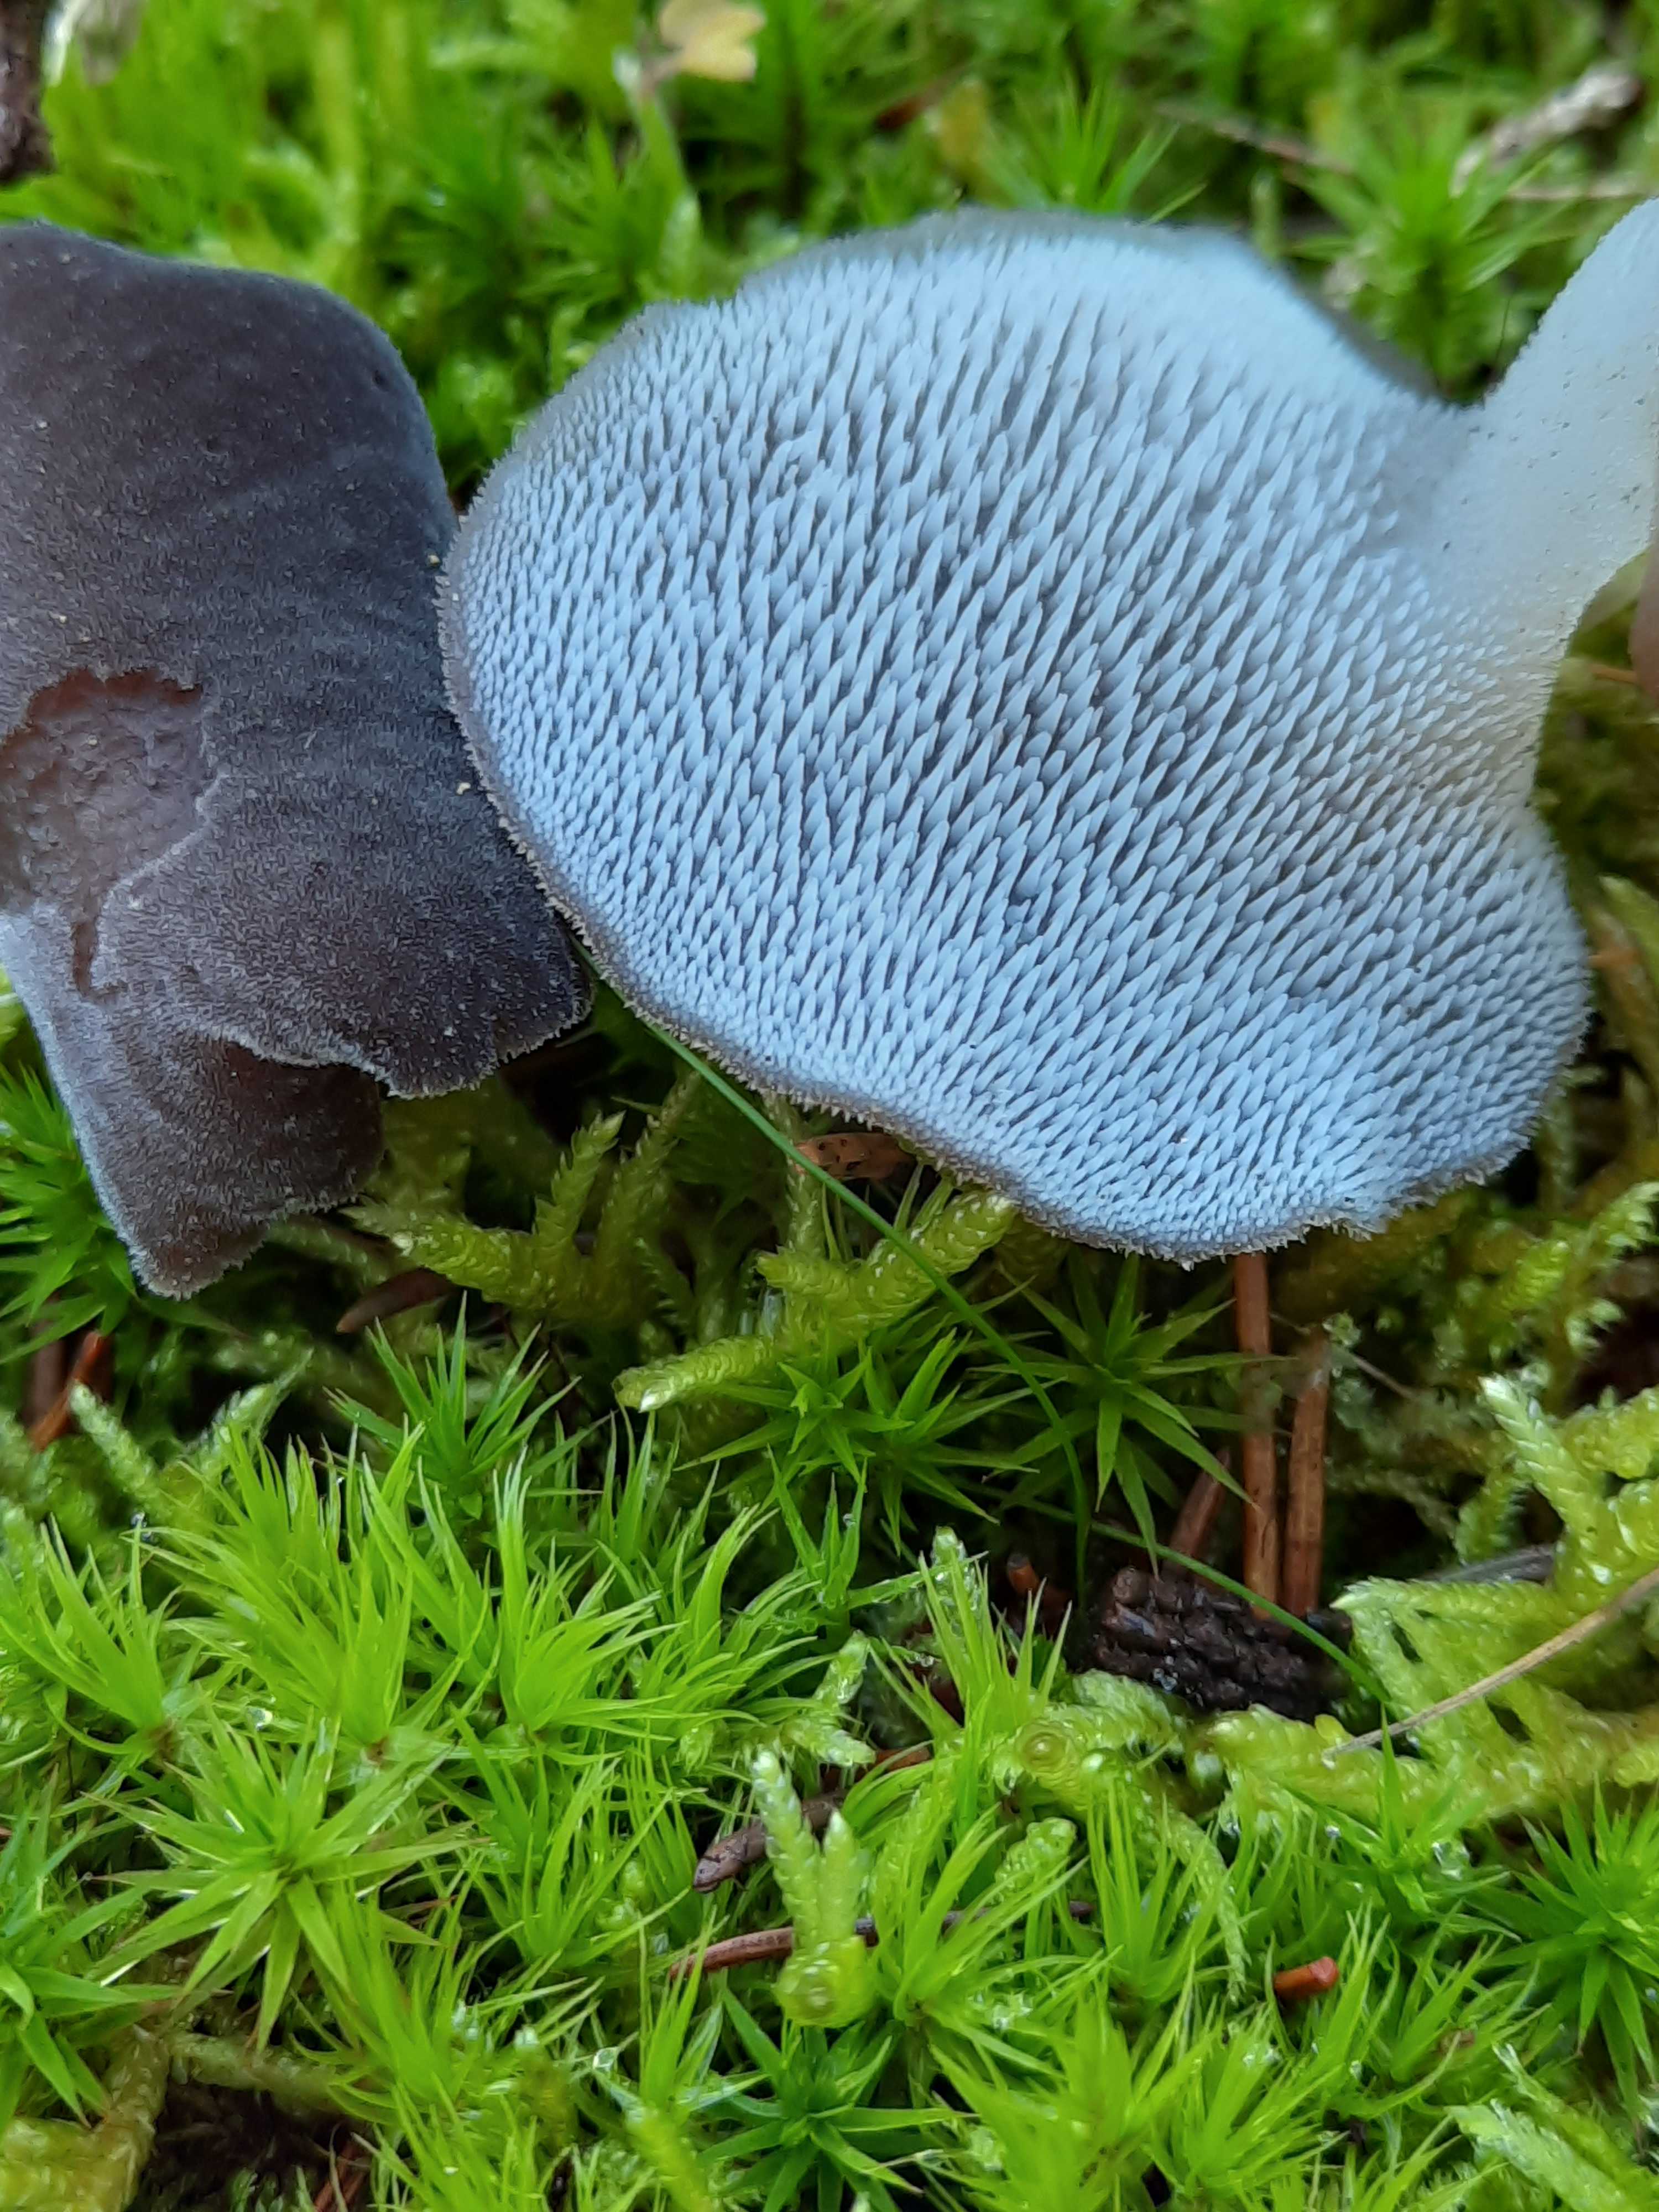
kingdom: Fungi
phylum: Basidiomycota
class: Agaricomycetes
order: Auriculariales
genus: Pseudohydnum
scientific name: Pseudohydnum gelatinosum
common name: bævretand
